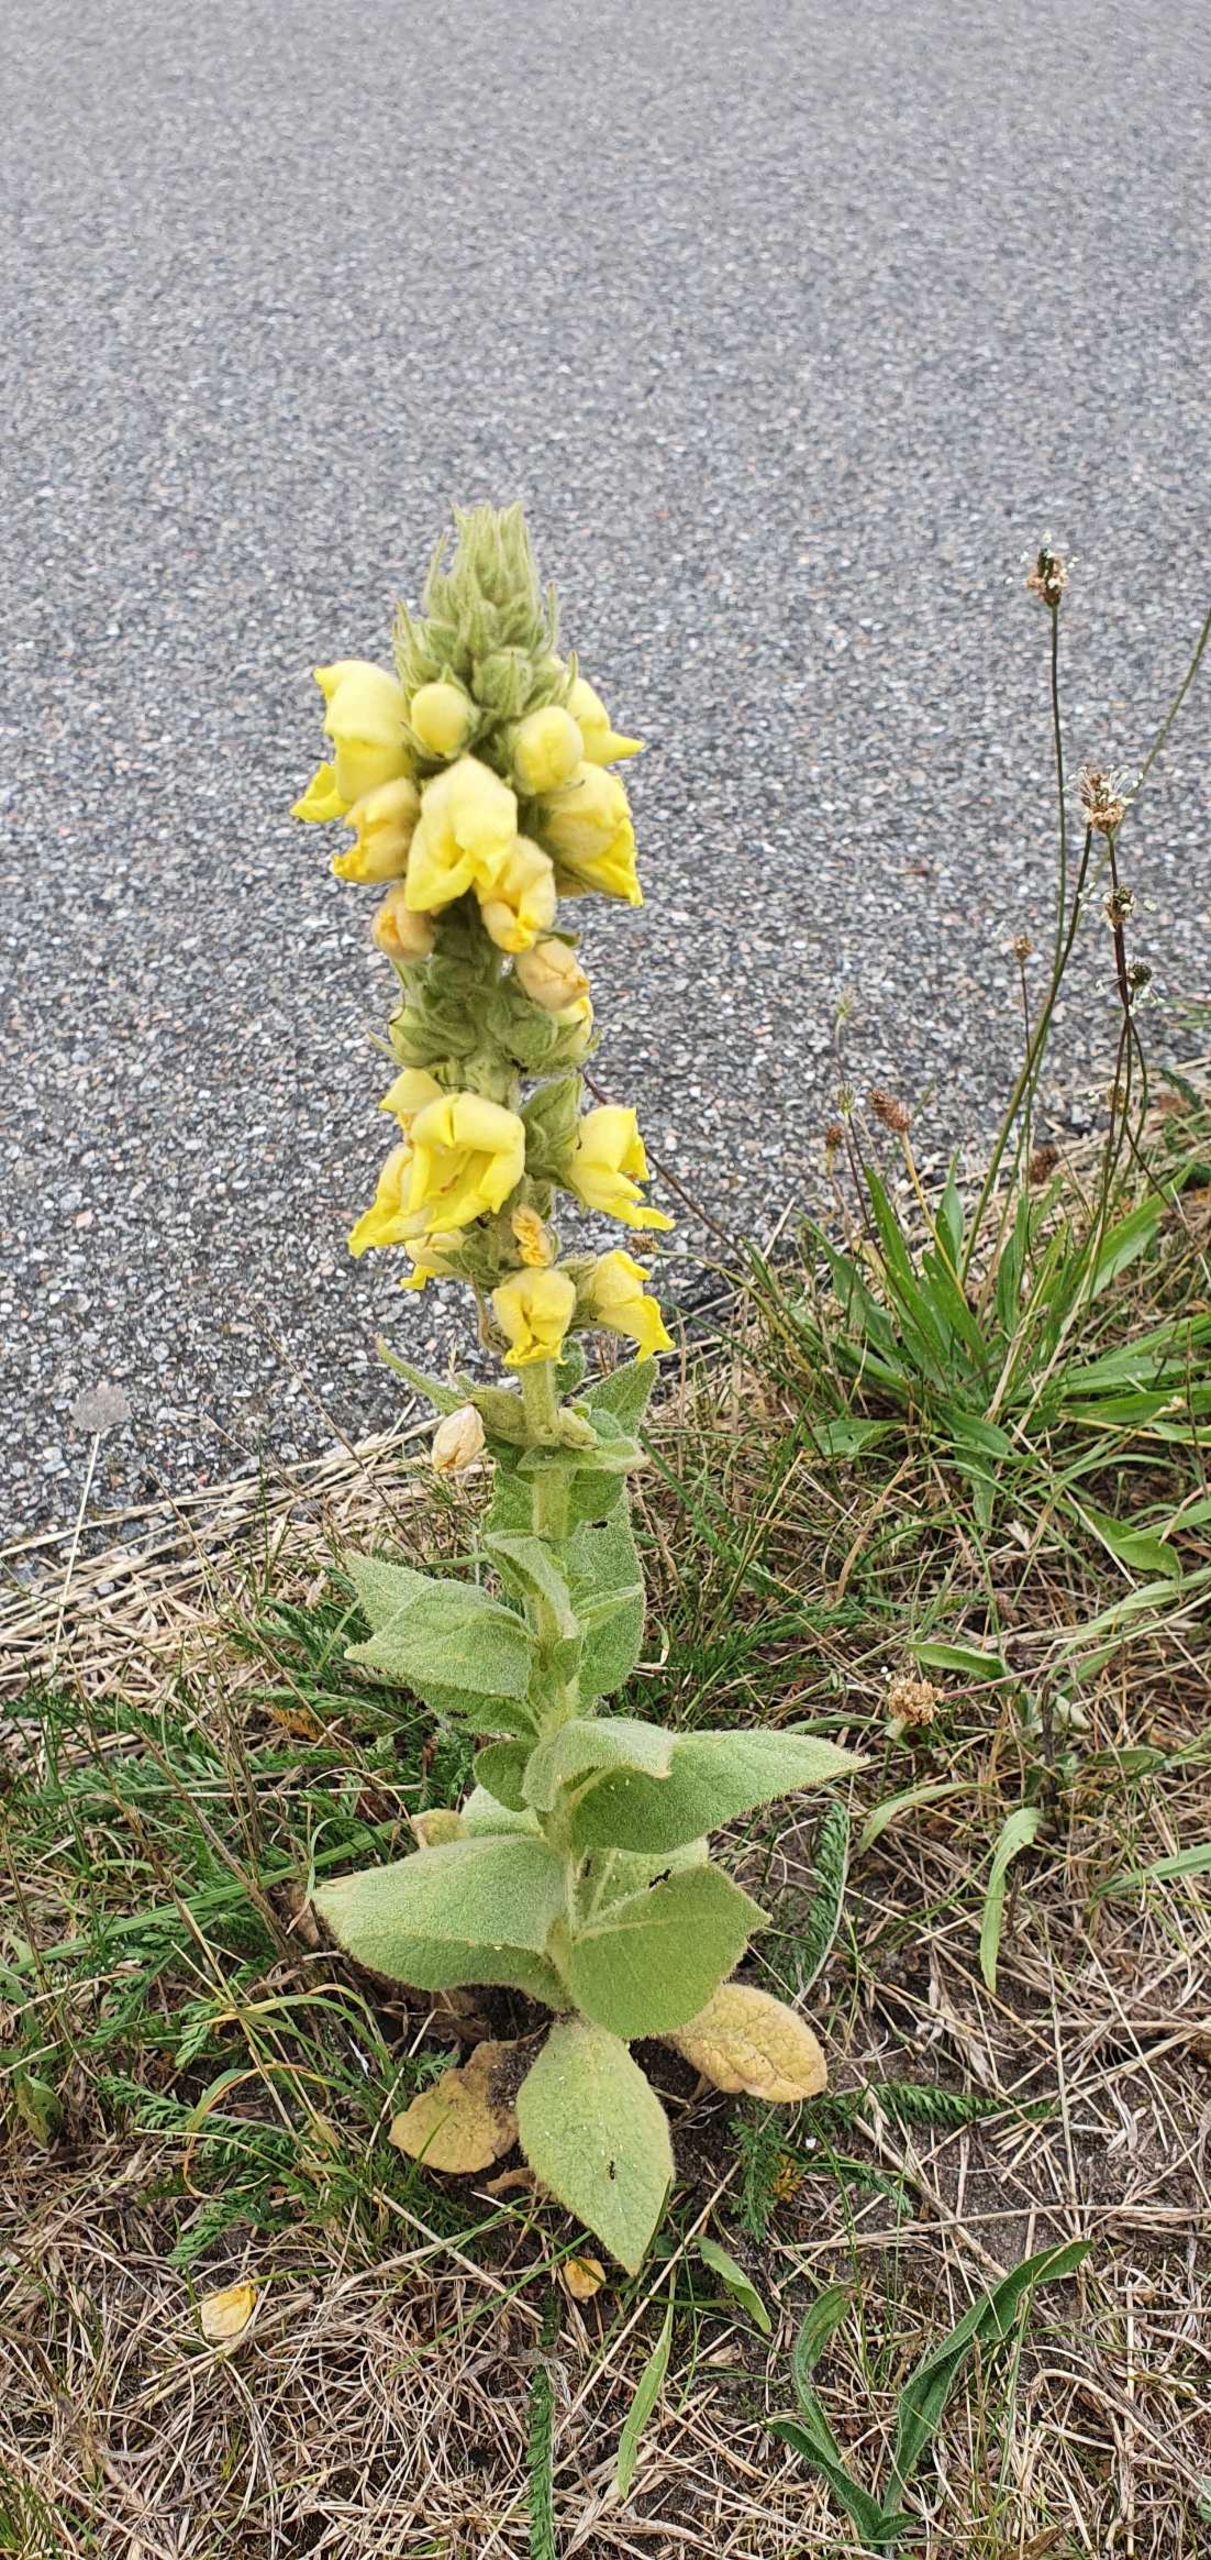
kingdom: Plantae
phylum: Tracheophyta
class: Magnoliopsida
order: Lamiales
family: Scrophulariaceae
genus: Verbascum
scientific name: Verbascum densiflorum
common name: Uldbladet kongelys
